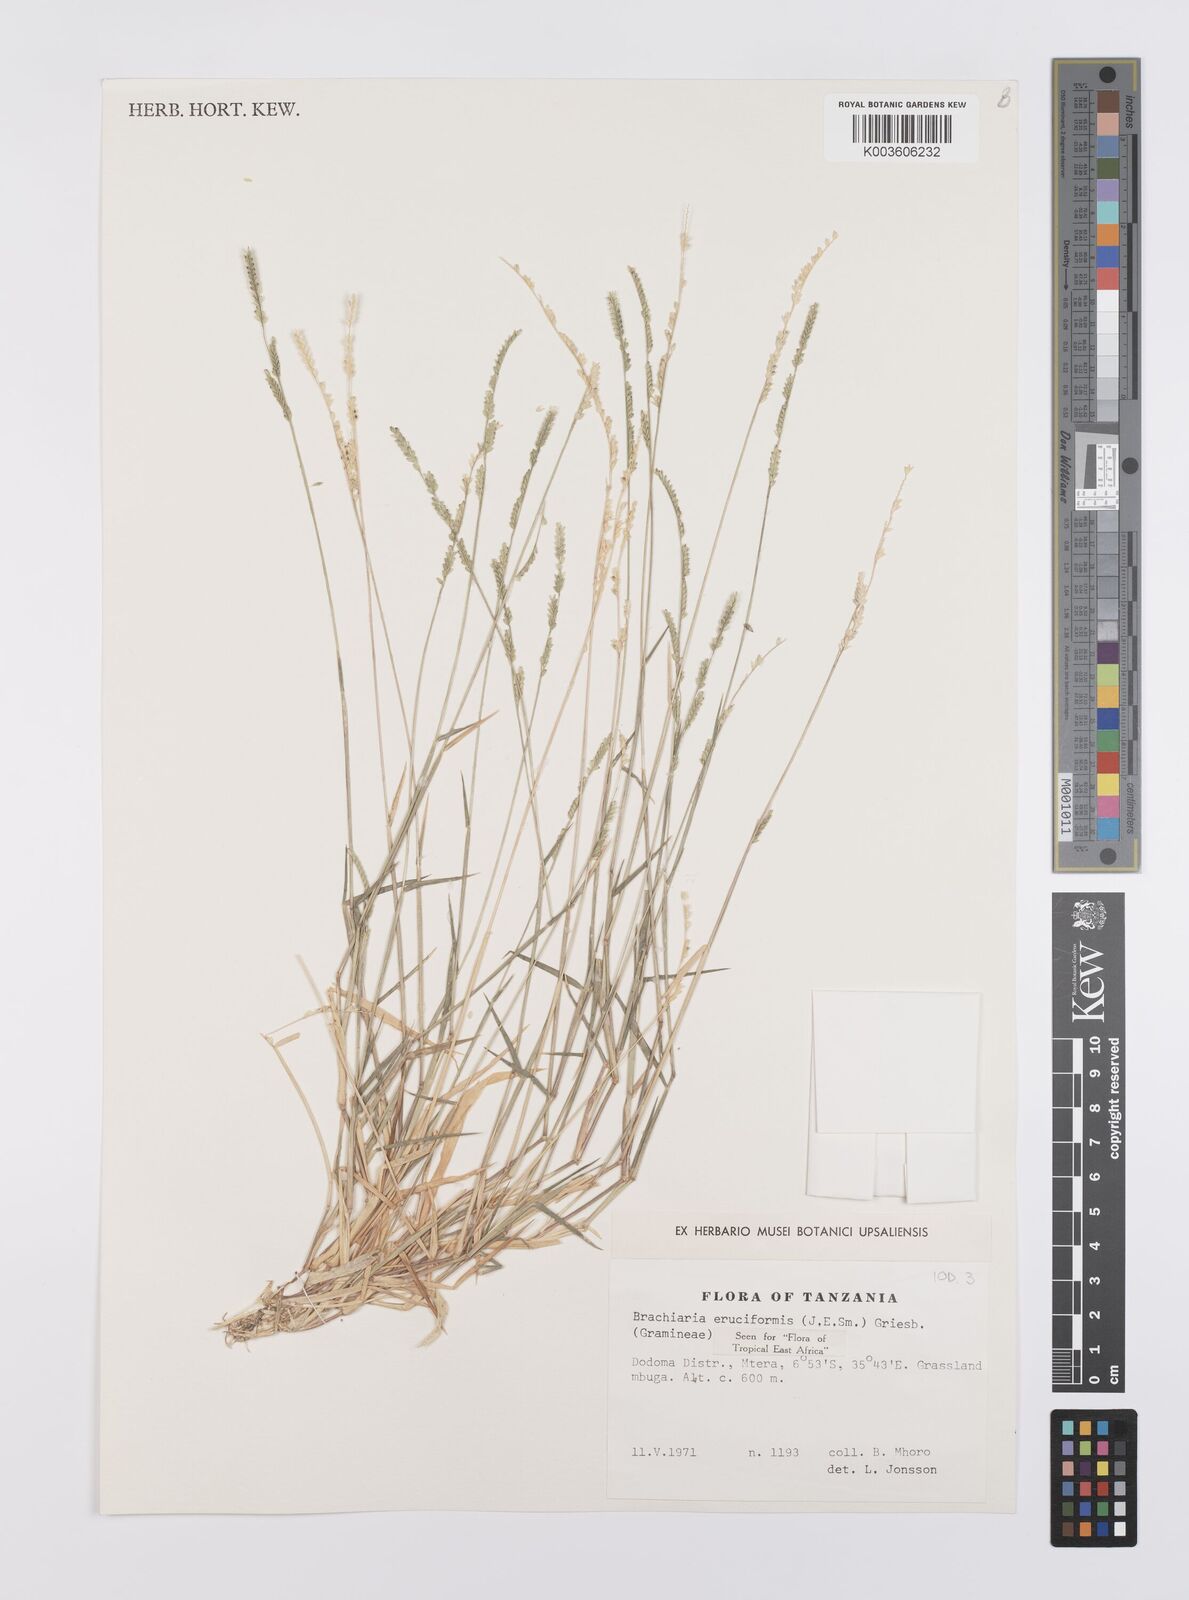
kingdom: Plantae
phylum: Tracheophyta
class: Liliopsida
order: Poales
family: Poaceae
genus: Moorochloa
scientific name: Moorochloa eruciformis
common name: Sweet signalgrass
